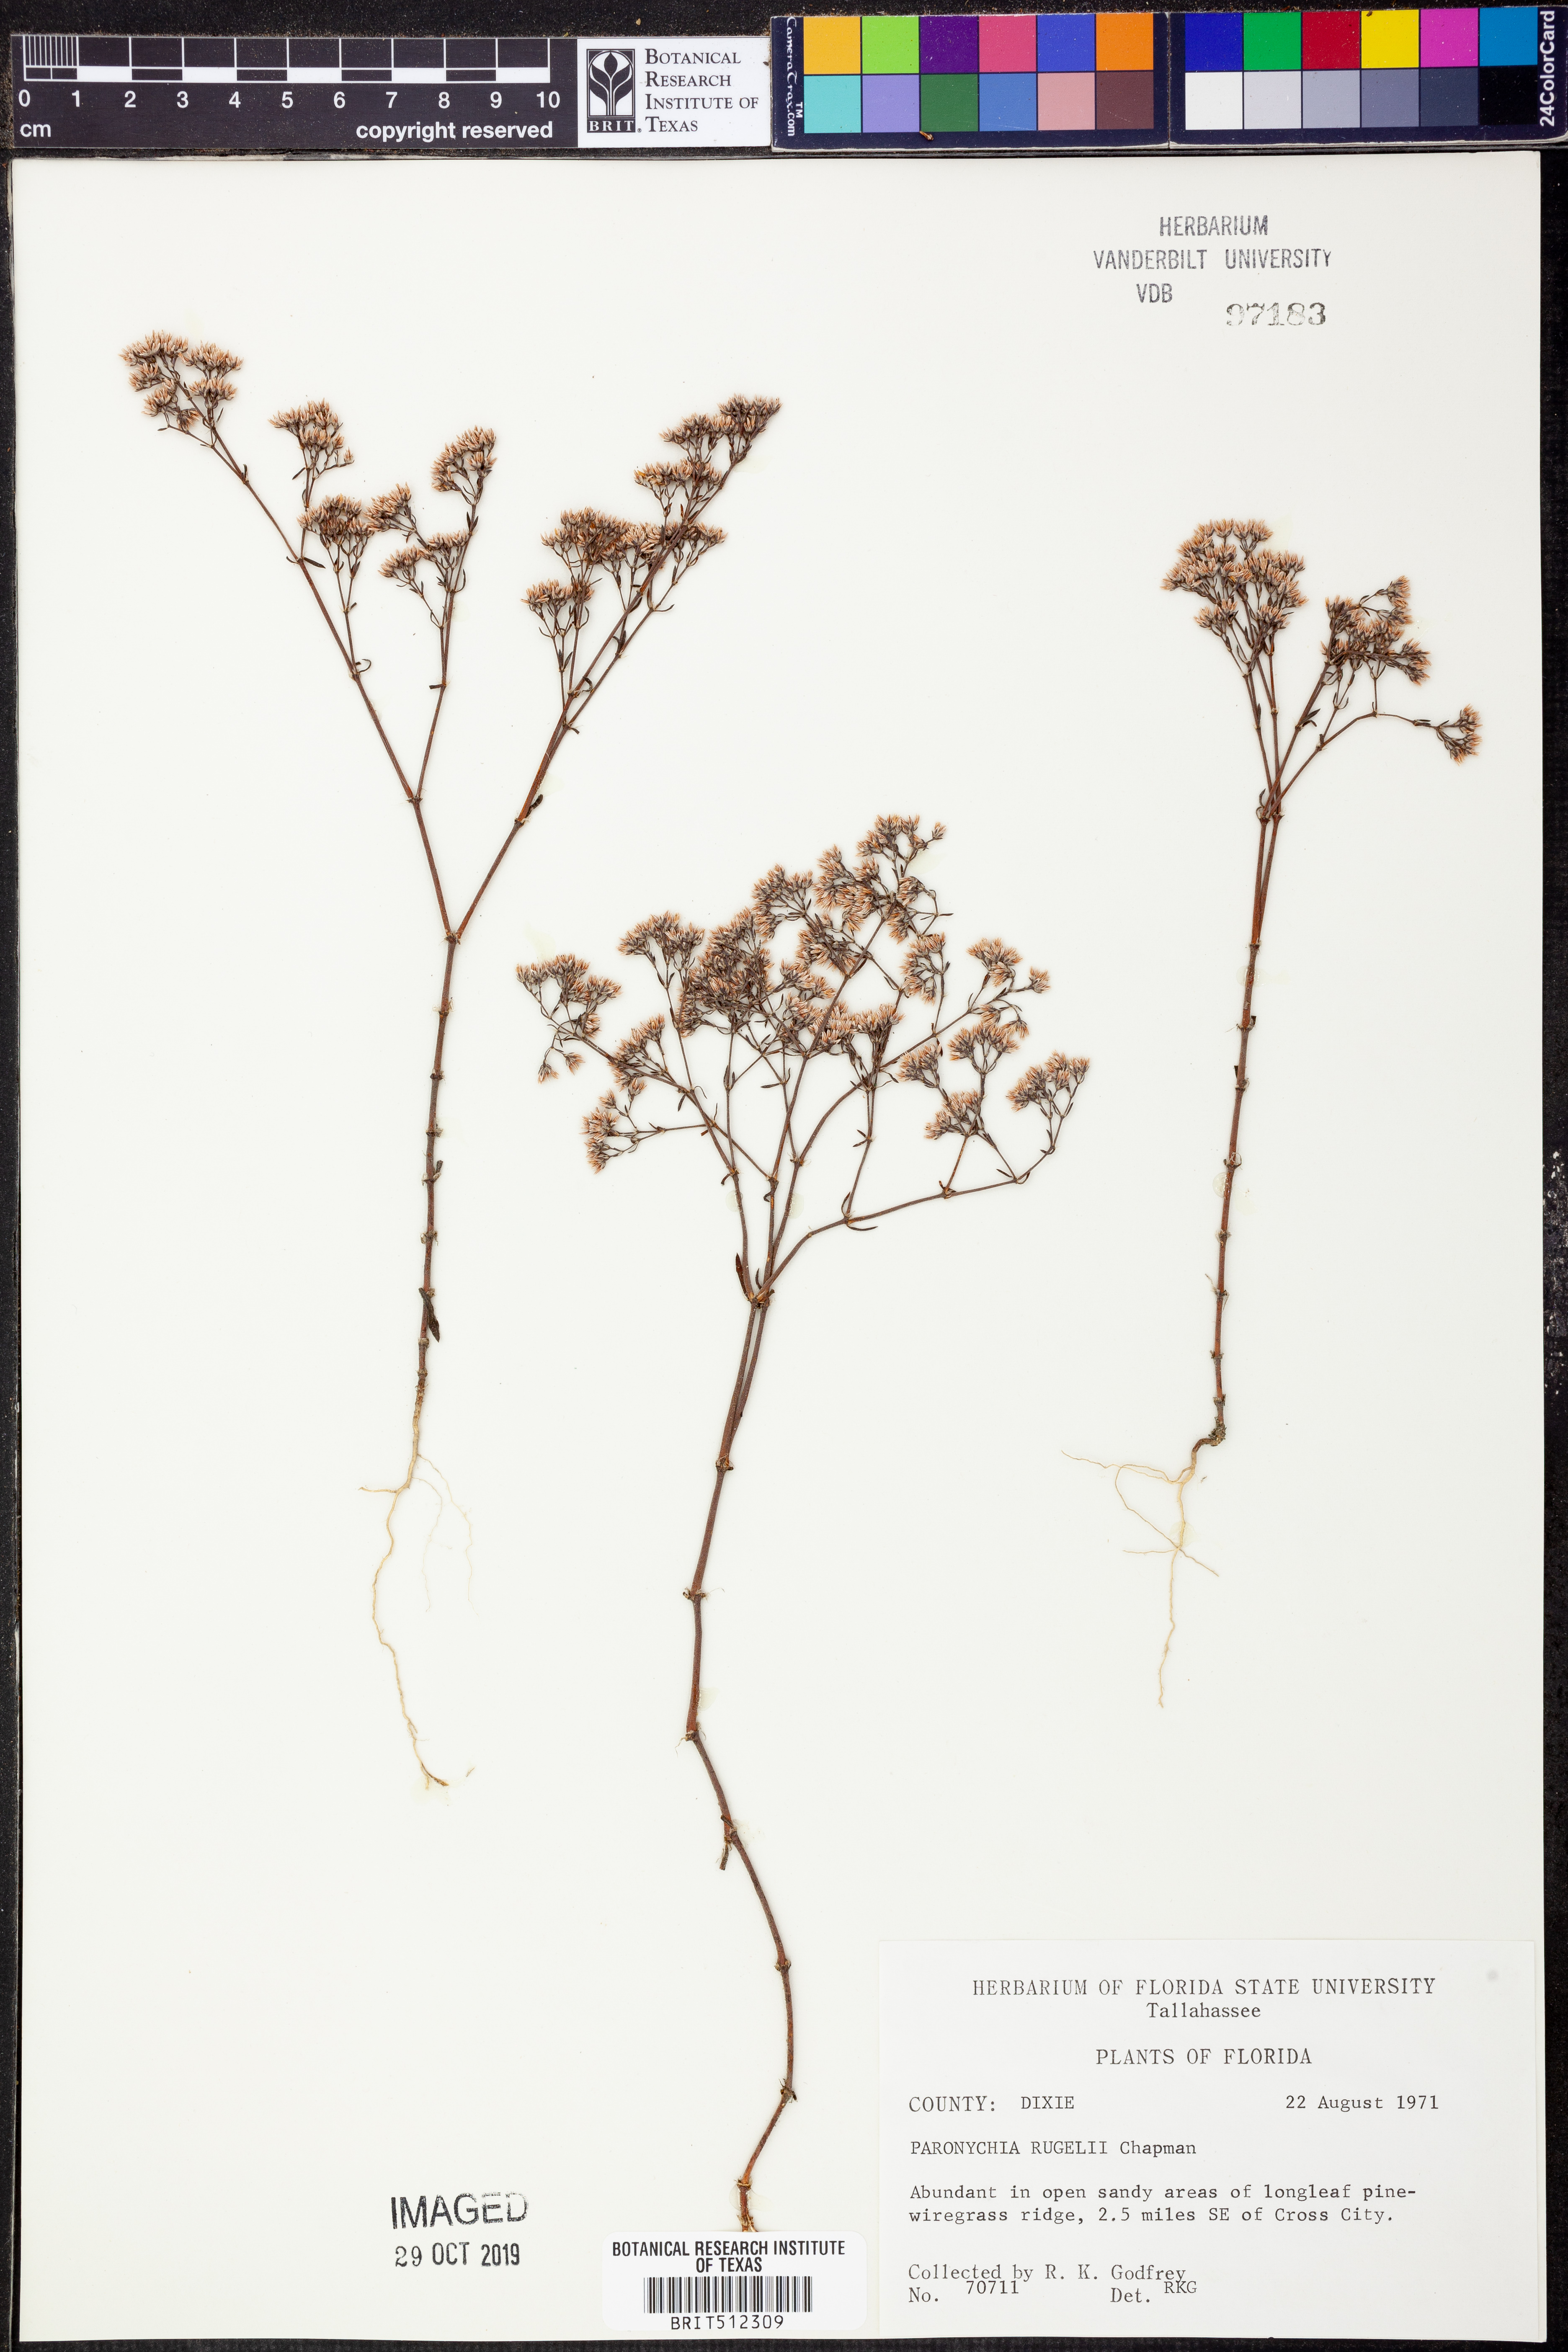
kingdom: Plantae
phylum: Tracheophyta
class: Magnoliopsida
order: Caryophyllales
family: Caryophyllaceae
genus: Paronychia
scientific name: Paronychia rugelii
